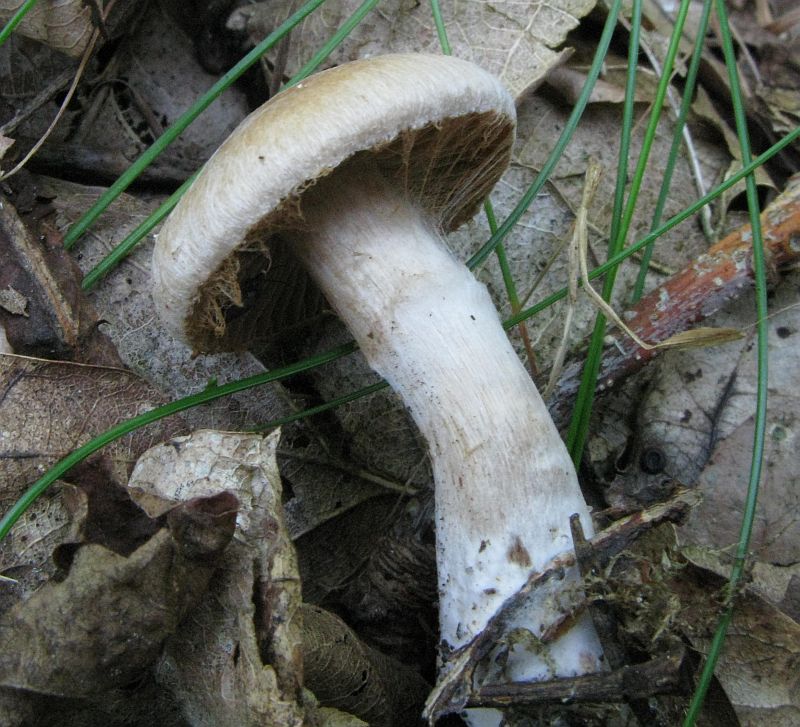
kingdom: Fungi
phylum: Basidiomycota
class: Agaricomycetes
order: Agaricales
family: Cortinariaceae
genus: Cortinarius
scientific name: Cortinarius
